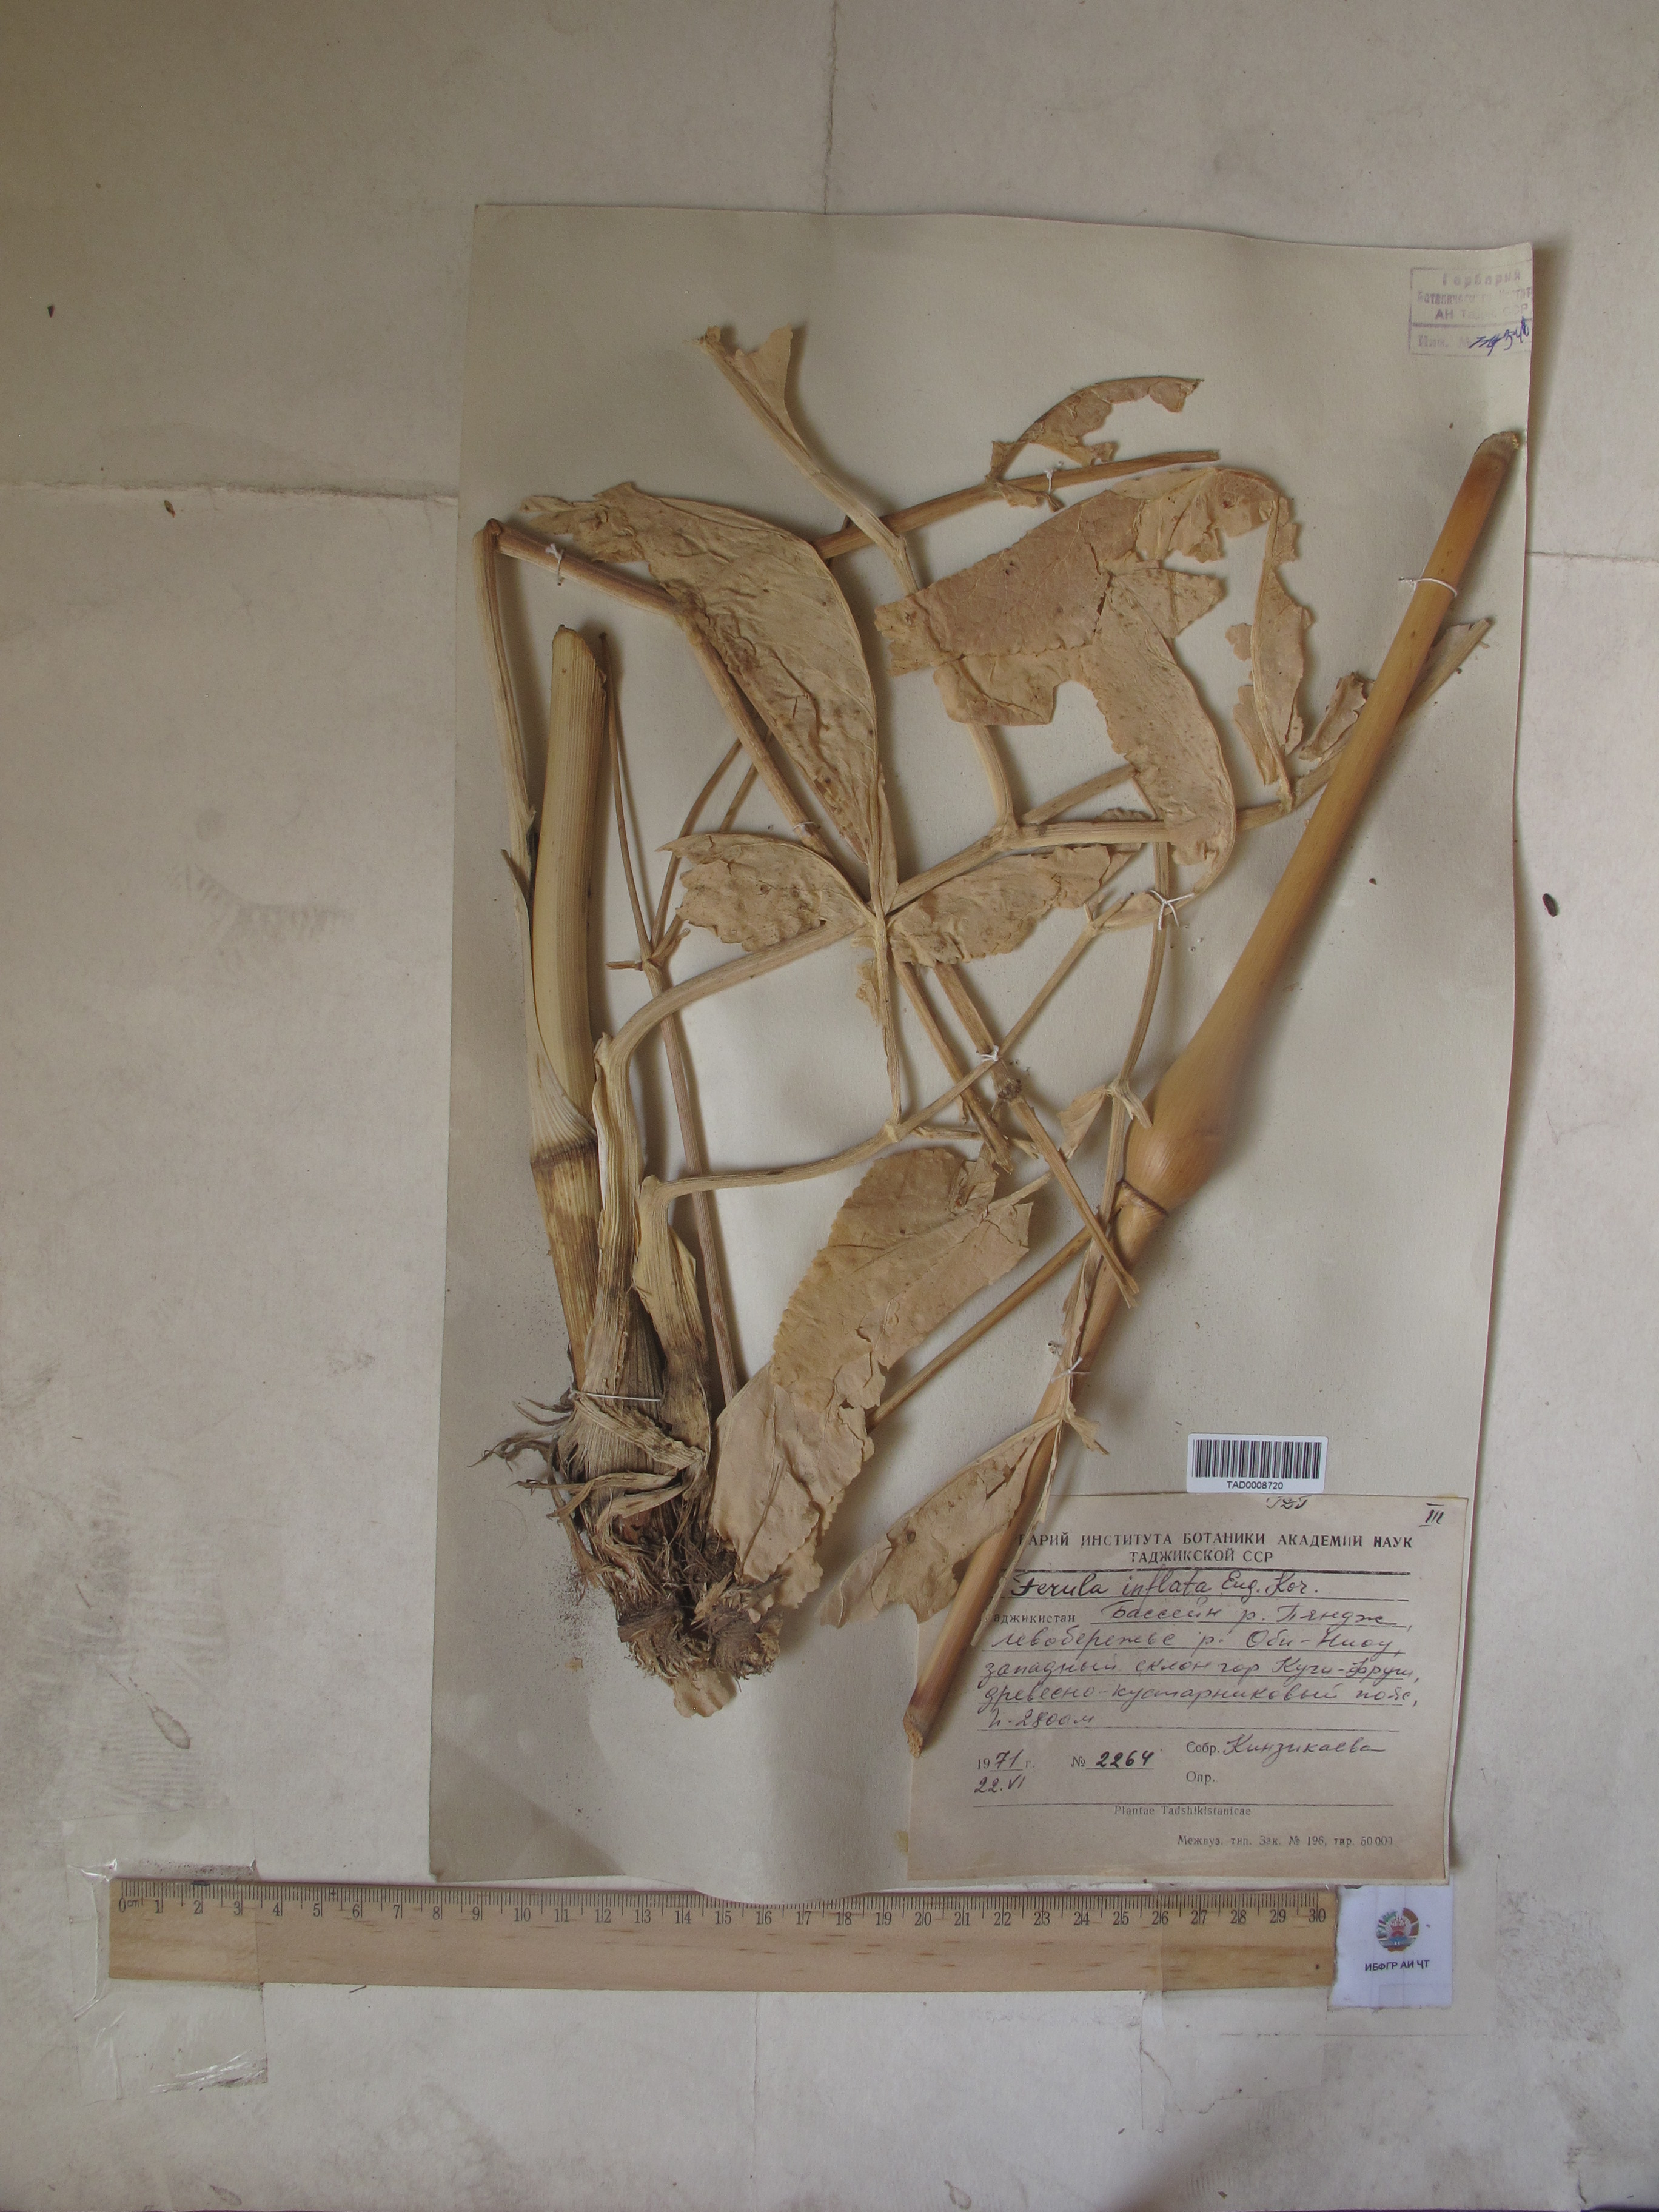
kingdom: Plantae
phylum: Tracheophyta
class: Magnoliopsida
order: Apiales
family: Apiaceae
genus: Ferula
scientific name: Ferula gigantea
